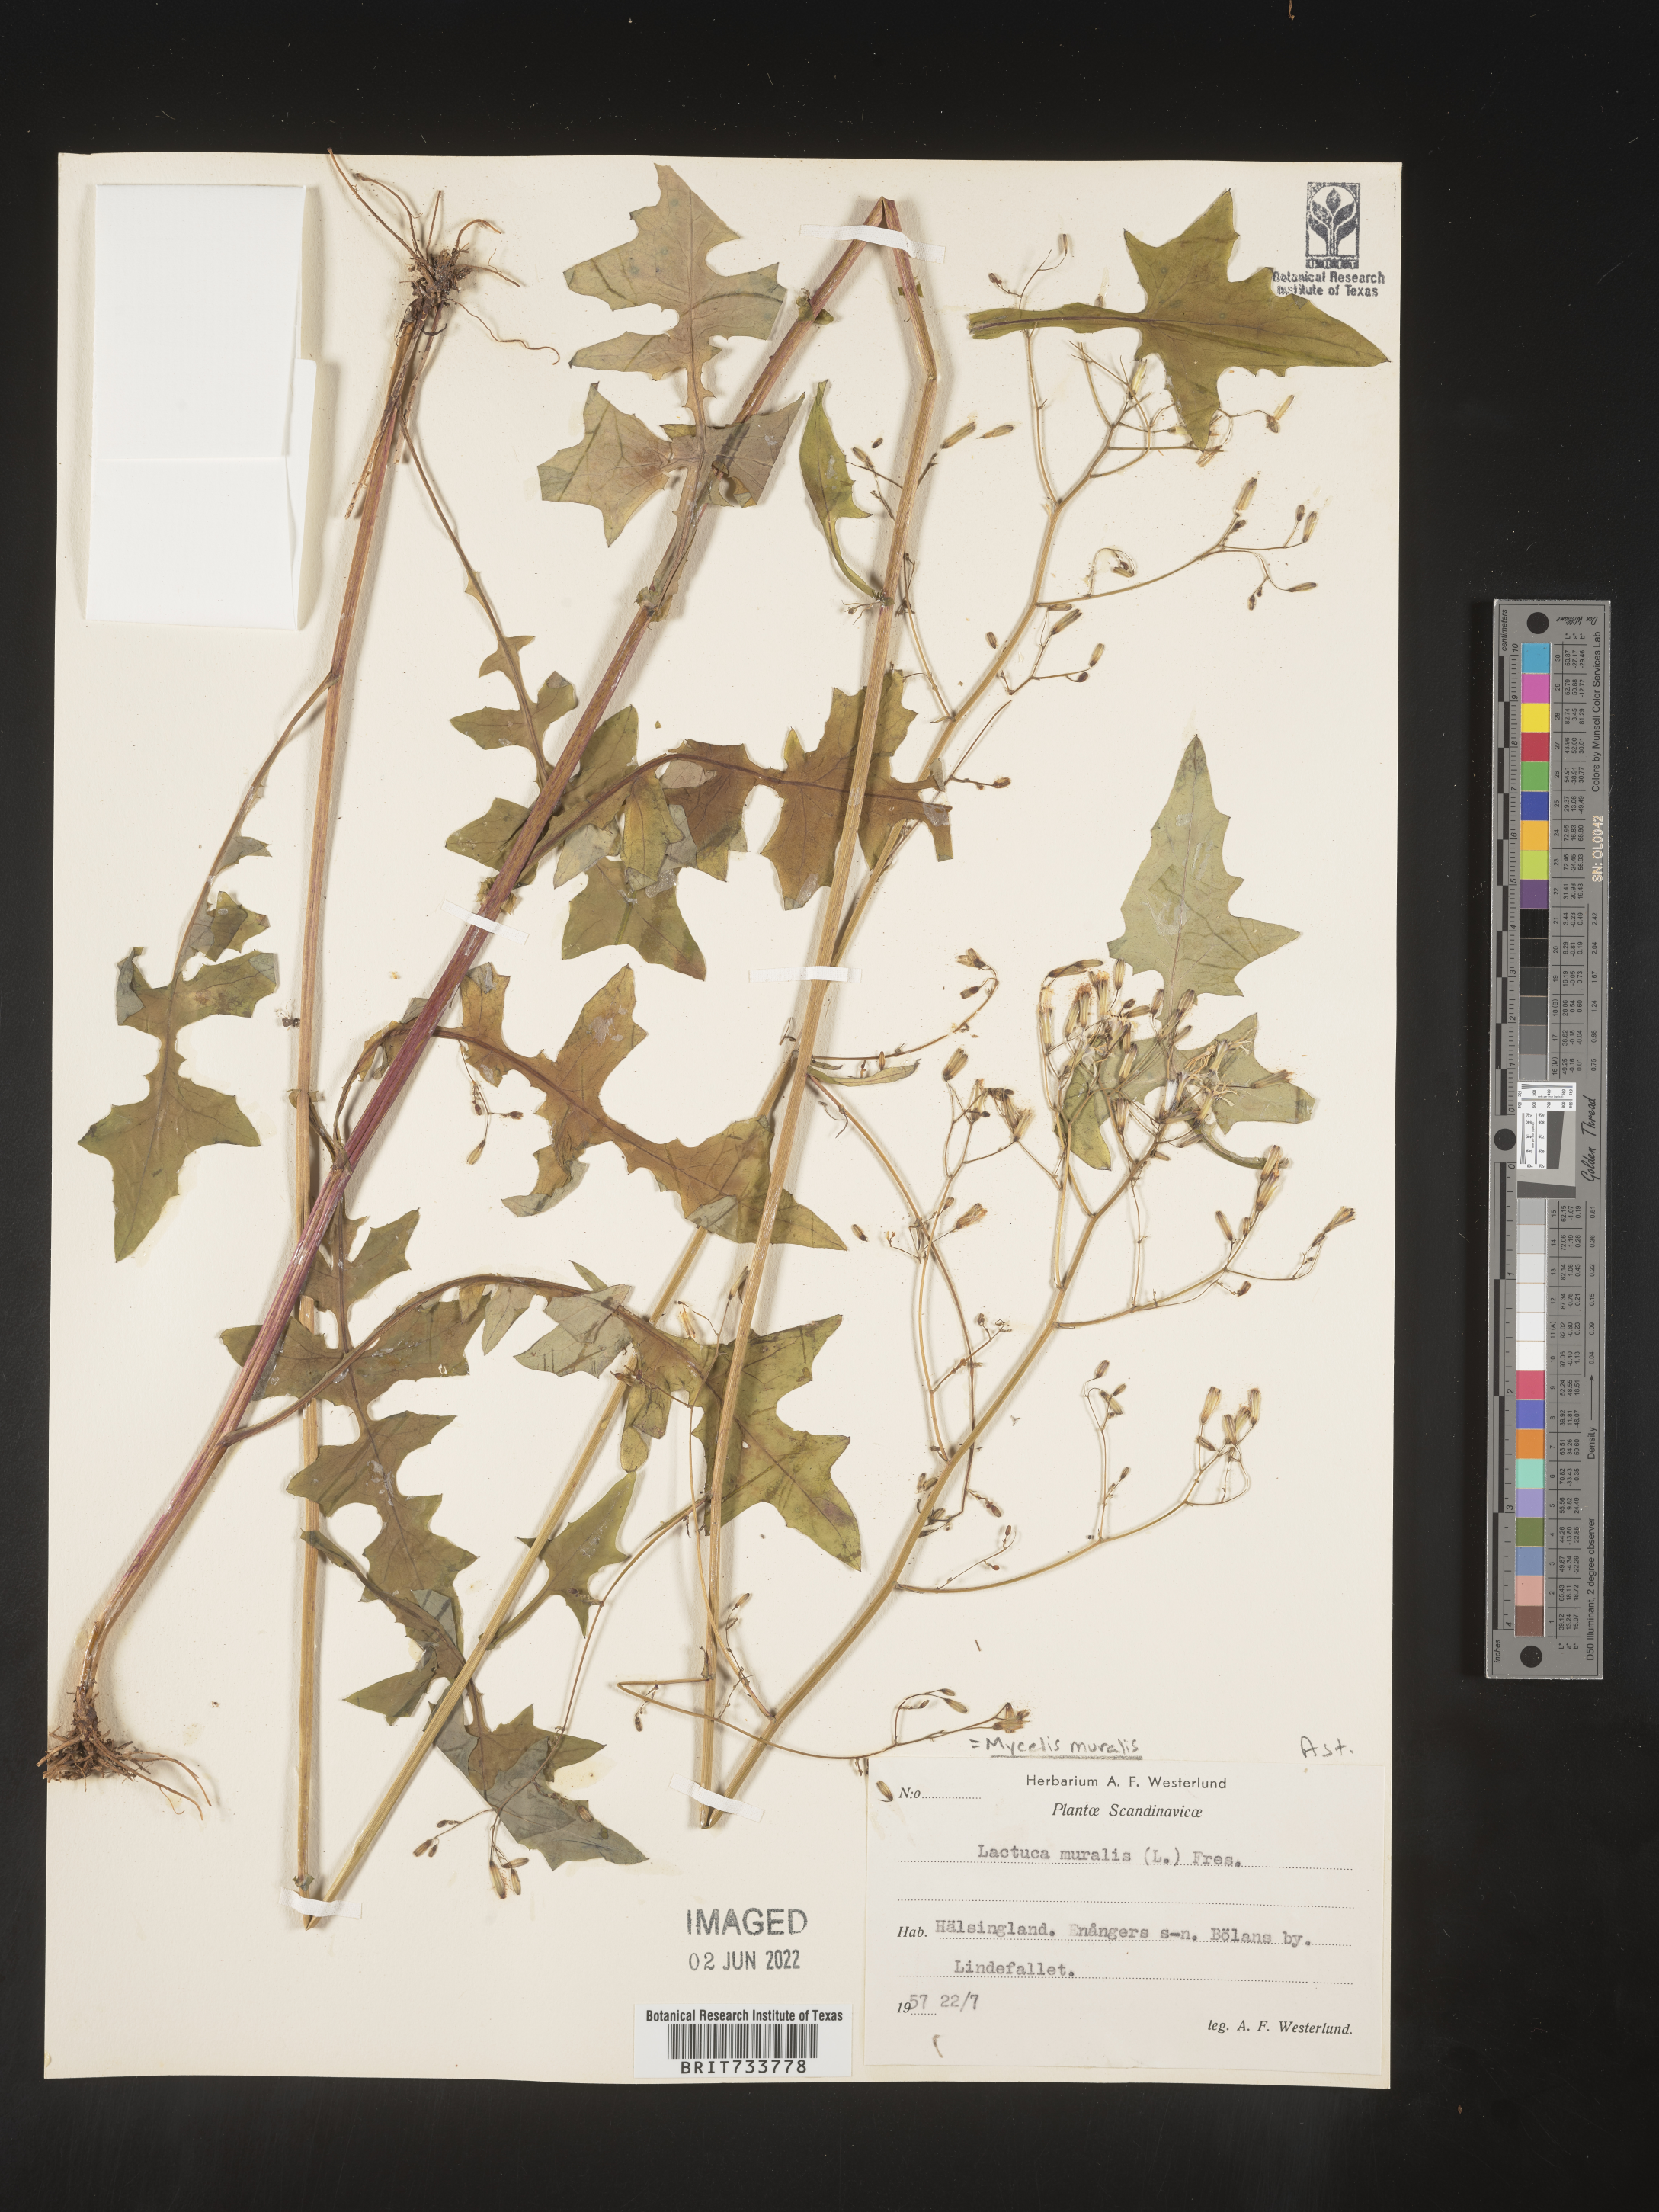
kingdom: Plantae
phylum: Tracheophyta
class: Magnoliopsida
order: Asterales
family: Asteraceae
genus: Mycelis
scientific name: Mycelis
